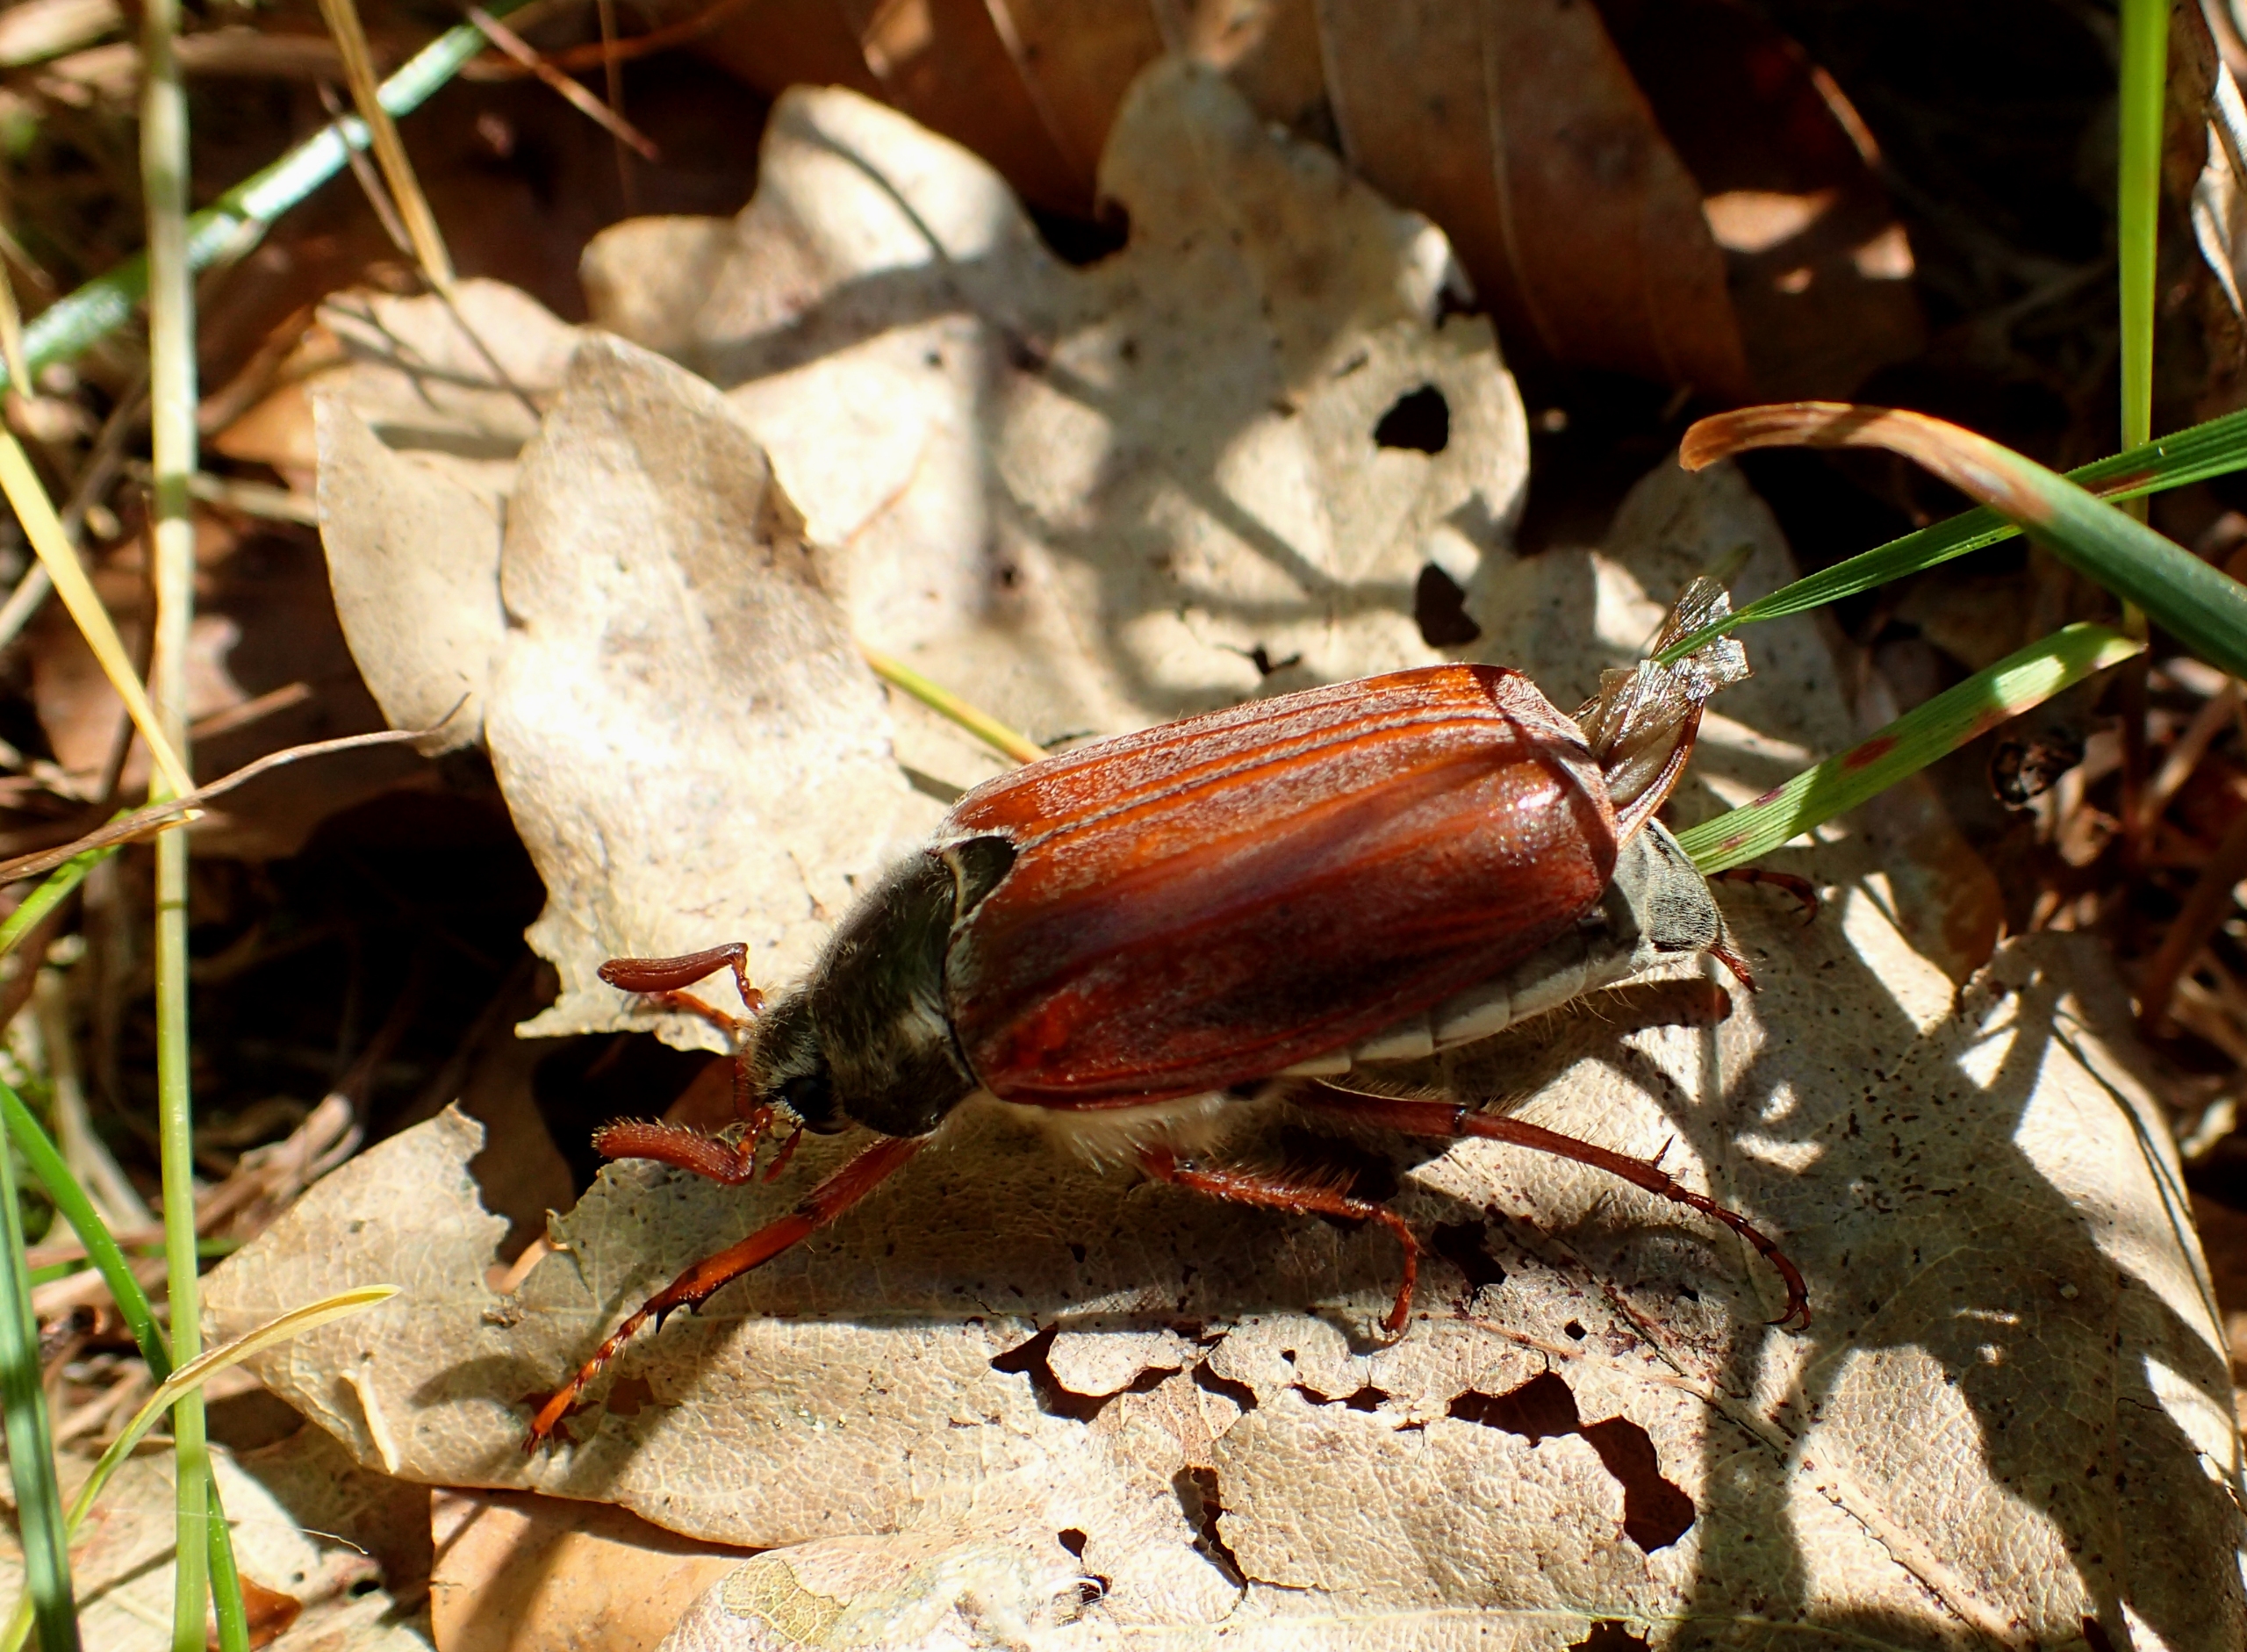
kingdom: Animalia
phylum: Arthropoda
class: Insecta
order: Coleoptera
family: Scarabaeidae
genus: Melolontha
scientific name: Melolontha melolontha
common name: Almindelig oldenborre
